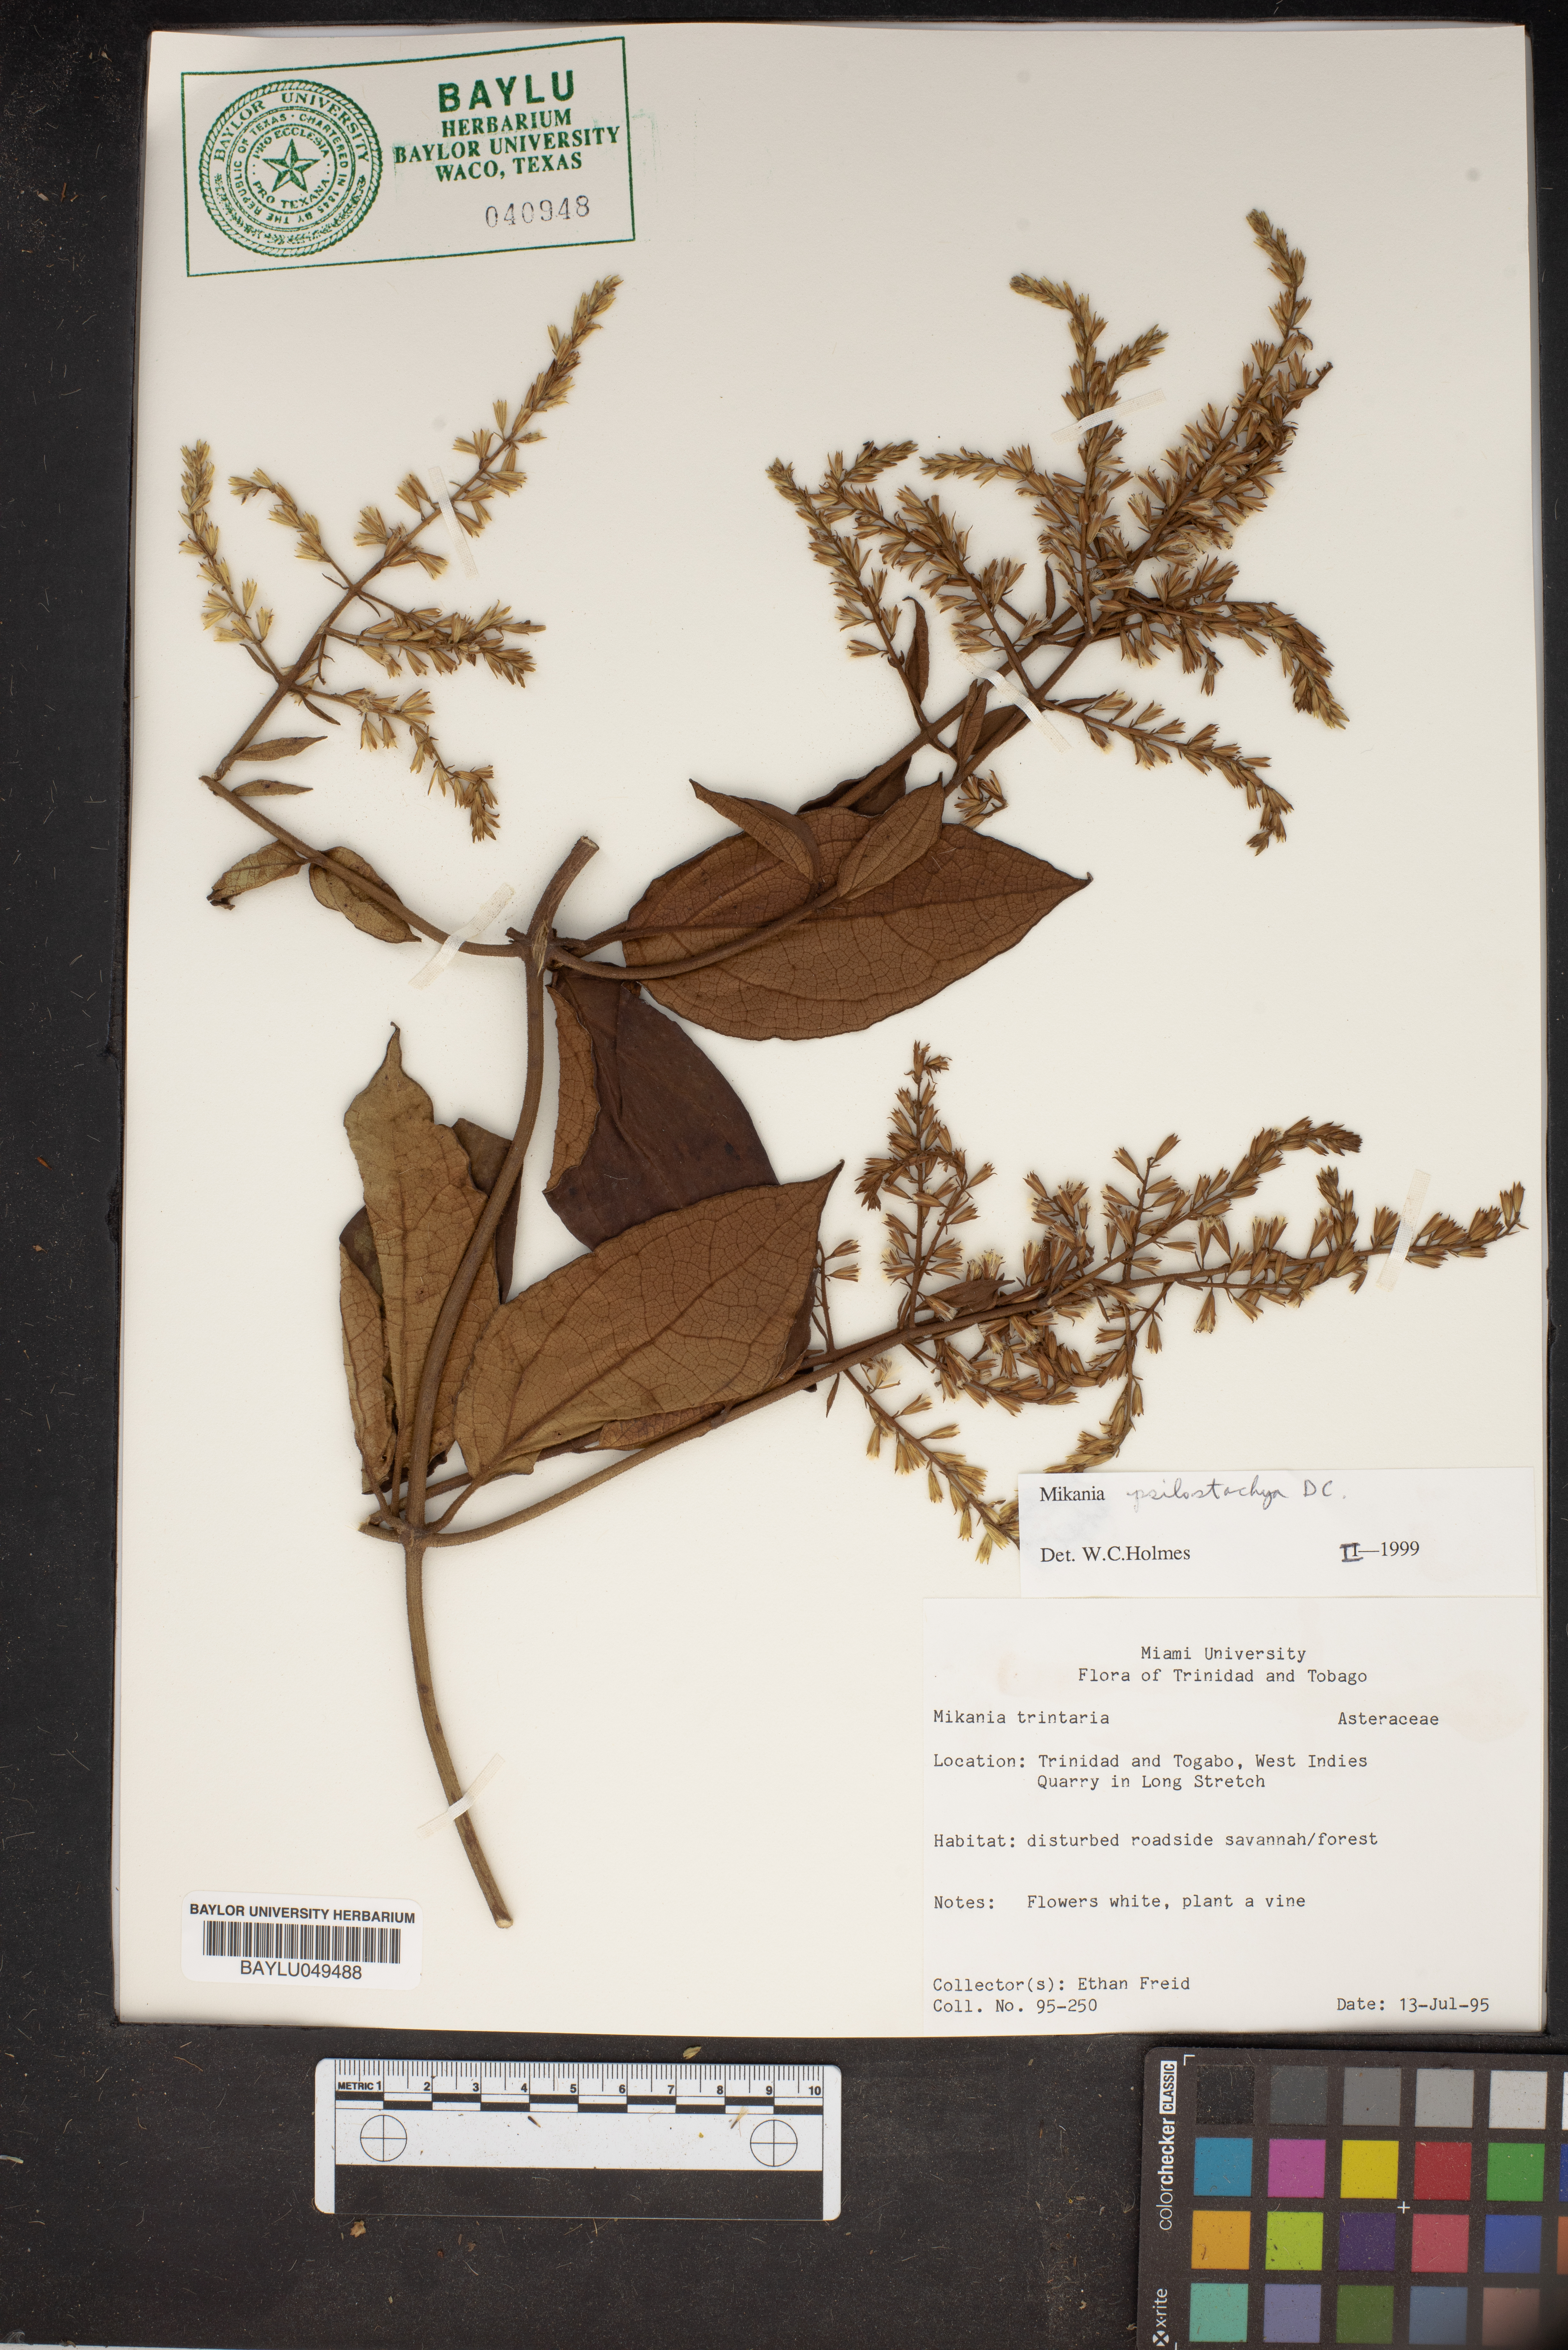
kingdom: Plantae
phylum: Tracheophyta
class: Magnoliopsida
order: Asterales
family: Asteraceae
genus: Mikania
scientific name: Mikania trinitaria
